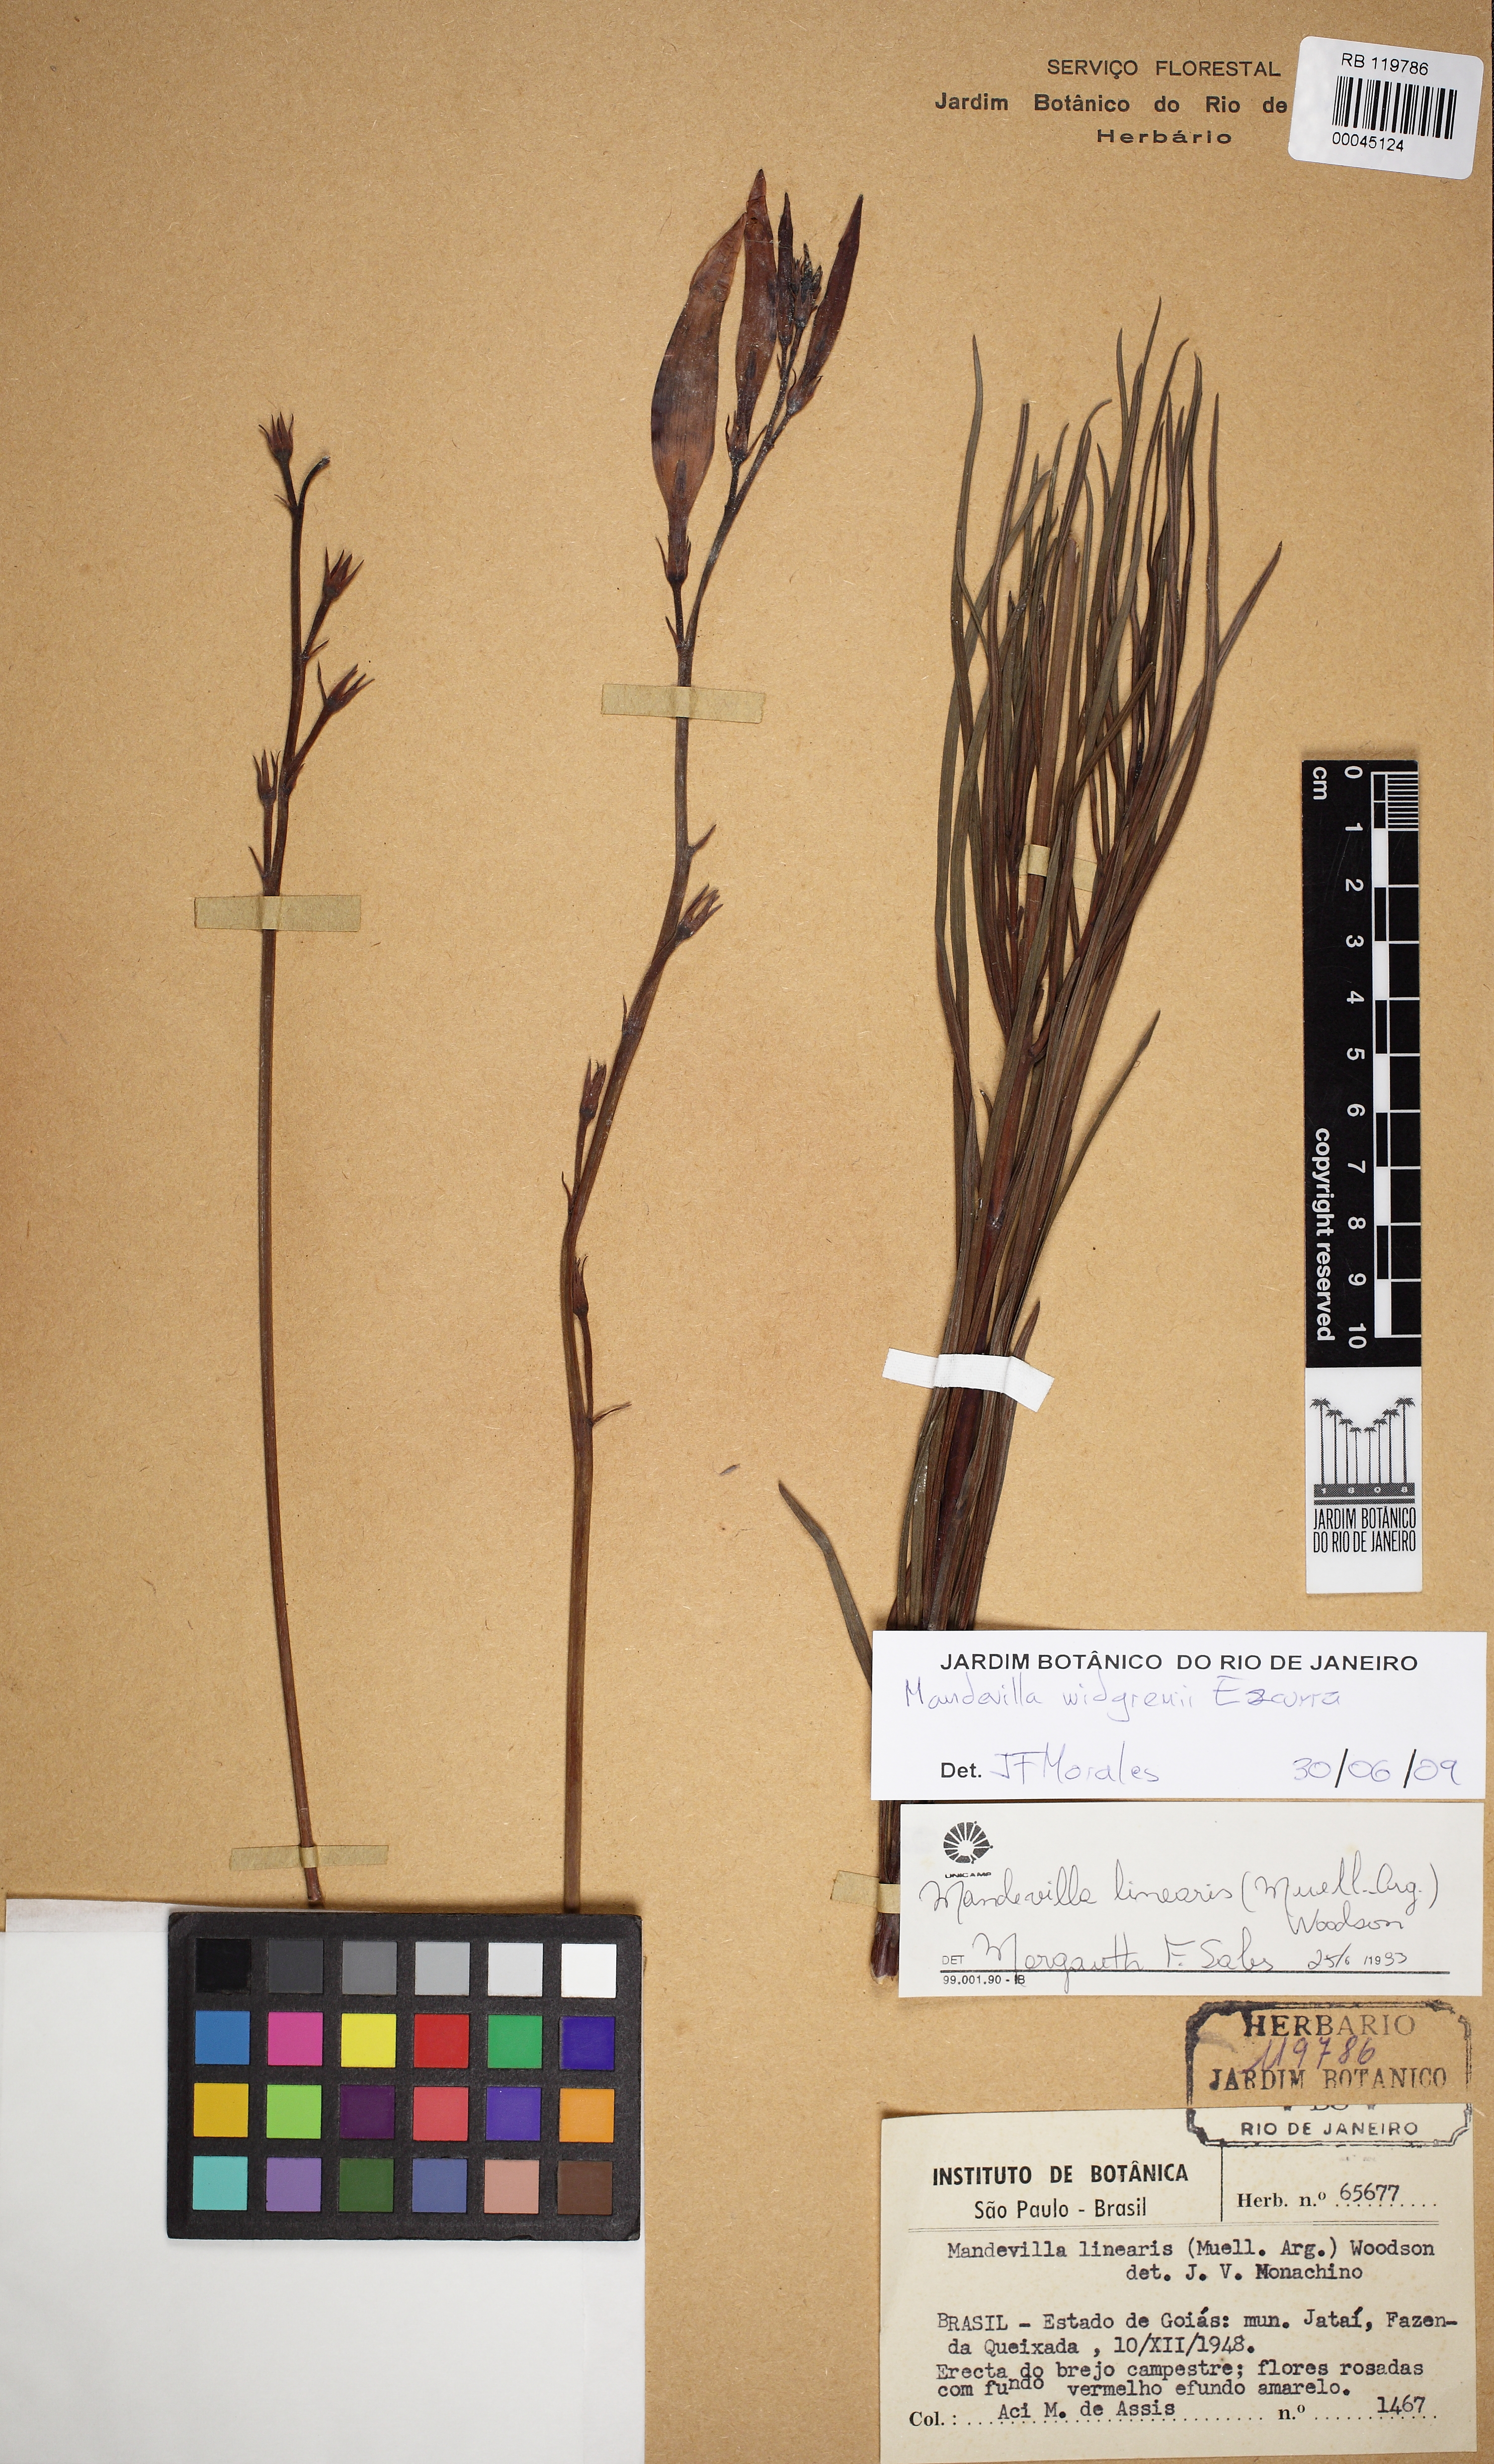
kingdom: Plantae
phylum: Tracheophyta
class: Magnoliopsida
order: Gentianales
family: Apocynaceae
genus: Mandevilla
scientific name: Mandevilla widgrenii
